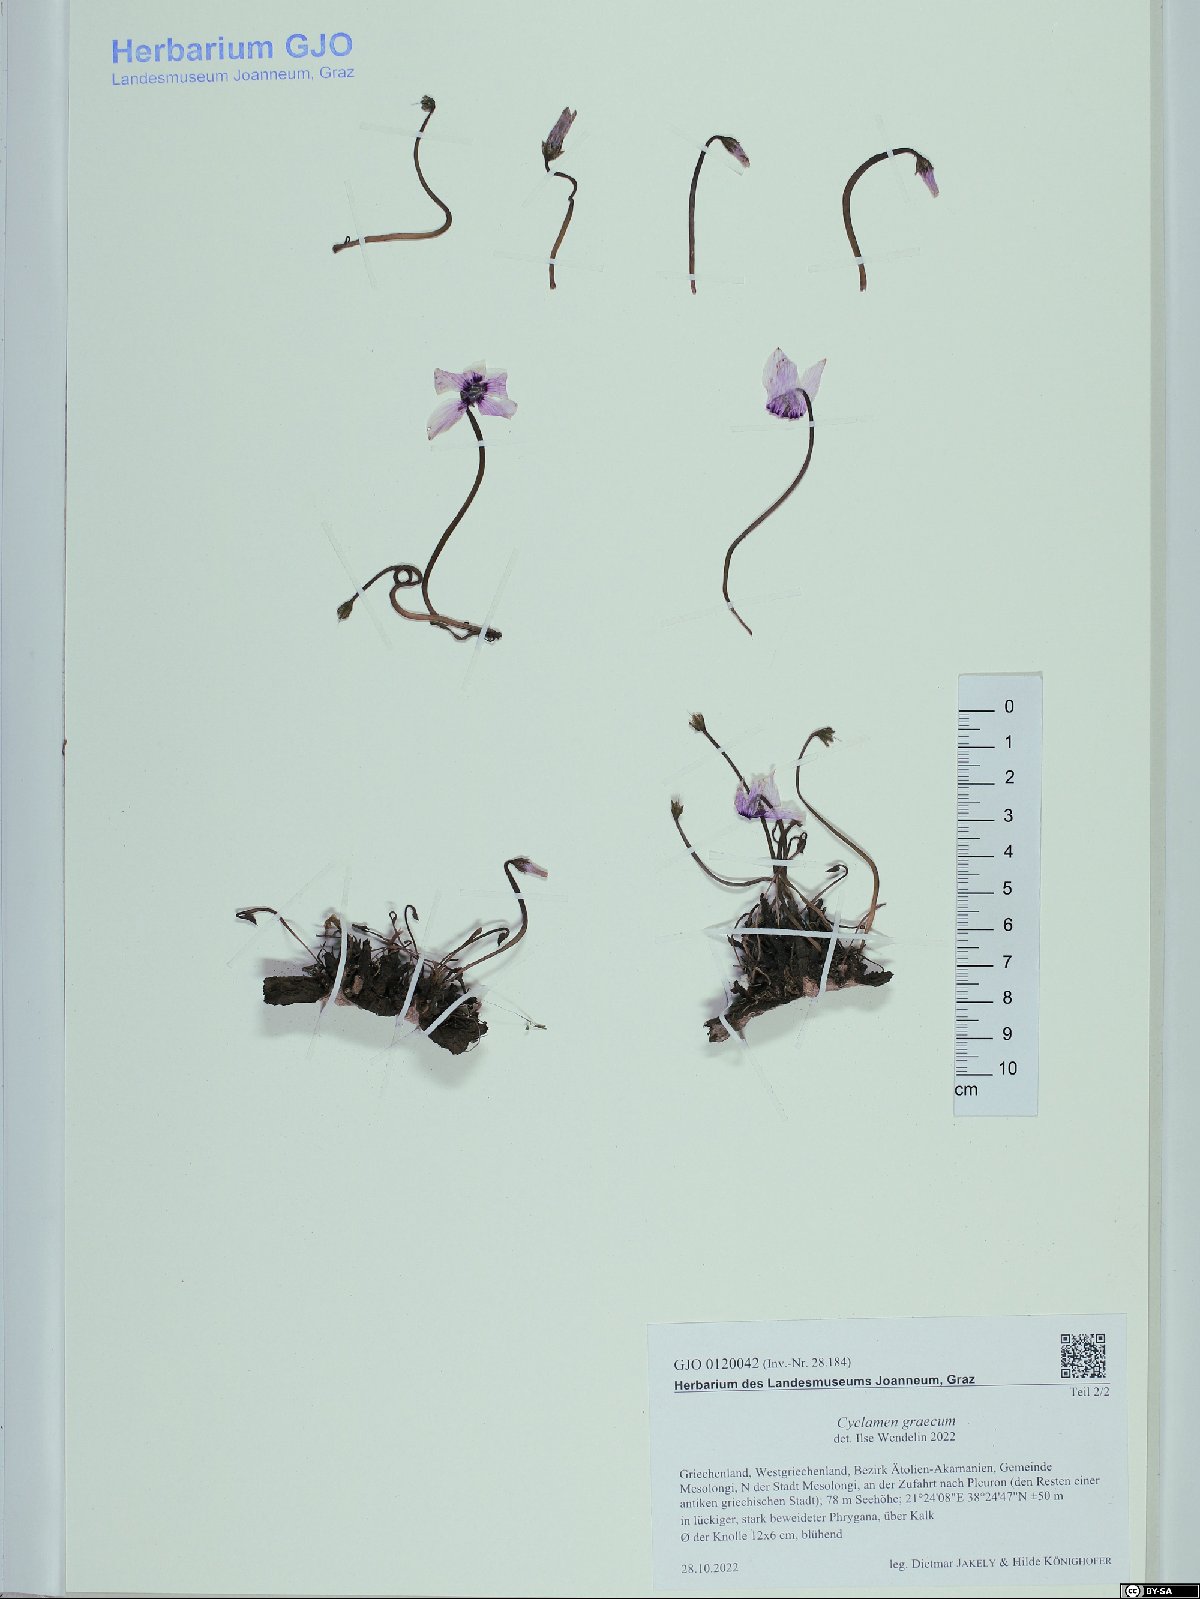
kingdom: Plantae
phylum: Tracheophyta
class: Magnoliopsida
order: Ericales
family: Primulaceae
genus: Cyclamen
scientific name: Cyclamen graecum
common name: Greek cyclamen
